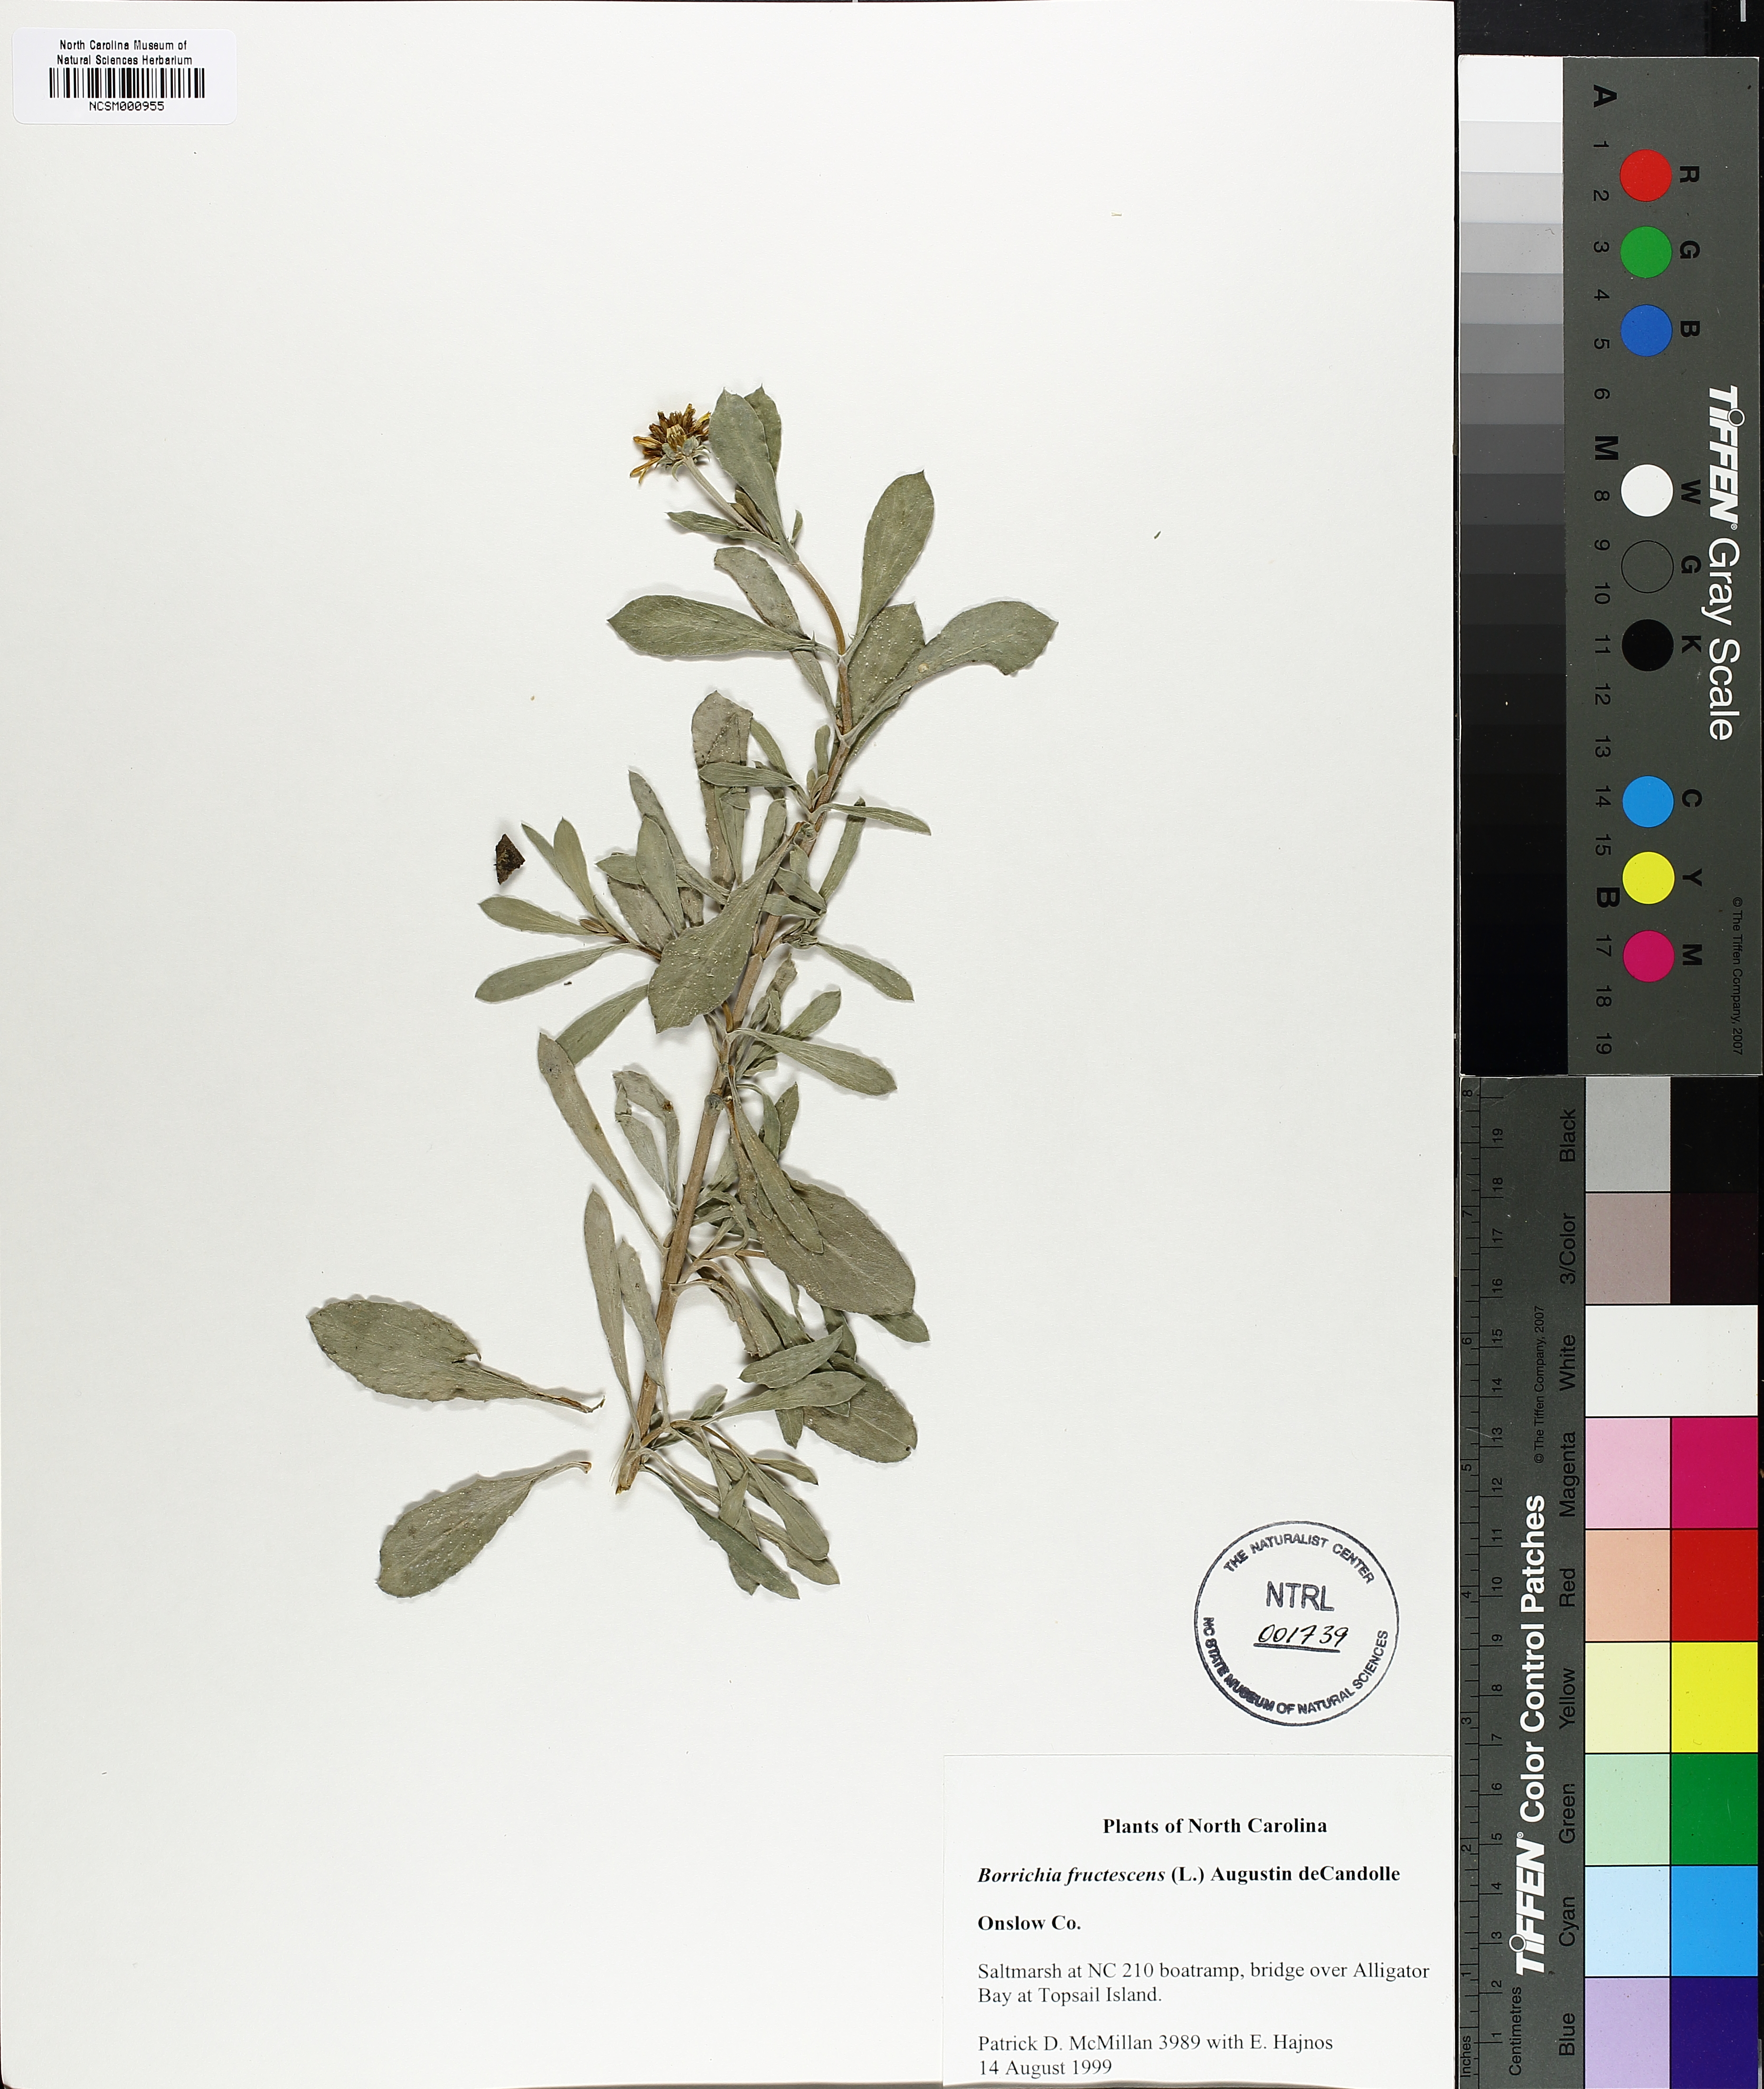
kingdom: Plantae
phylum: Tracheophyta
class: Magnoliopsida
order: Asterales
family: Asteraceae
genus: Borrichia
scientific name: Borrichia frutescens
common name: Sea oxeye
